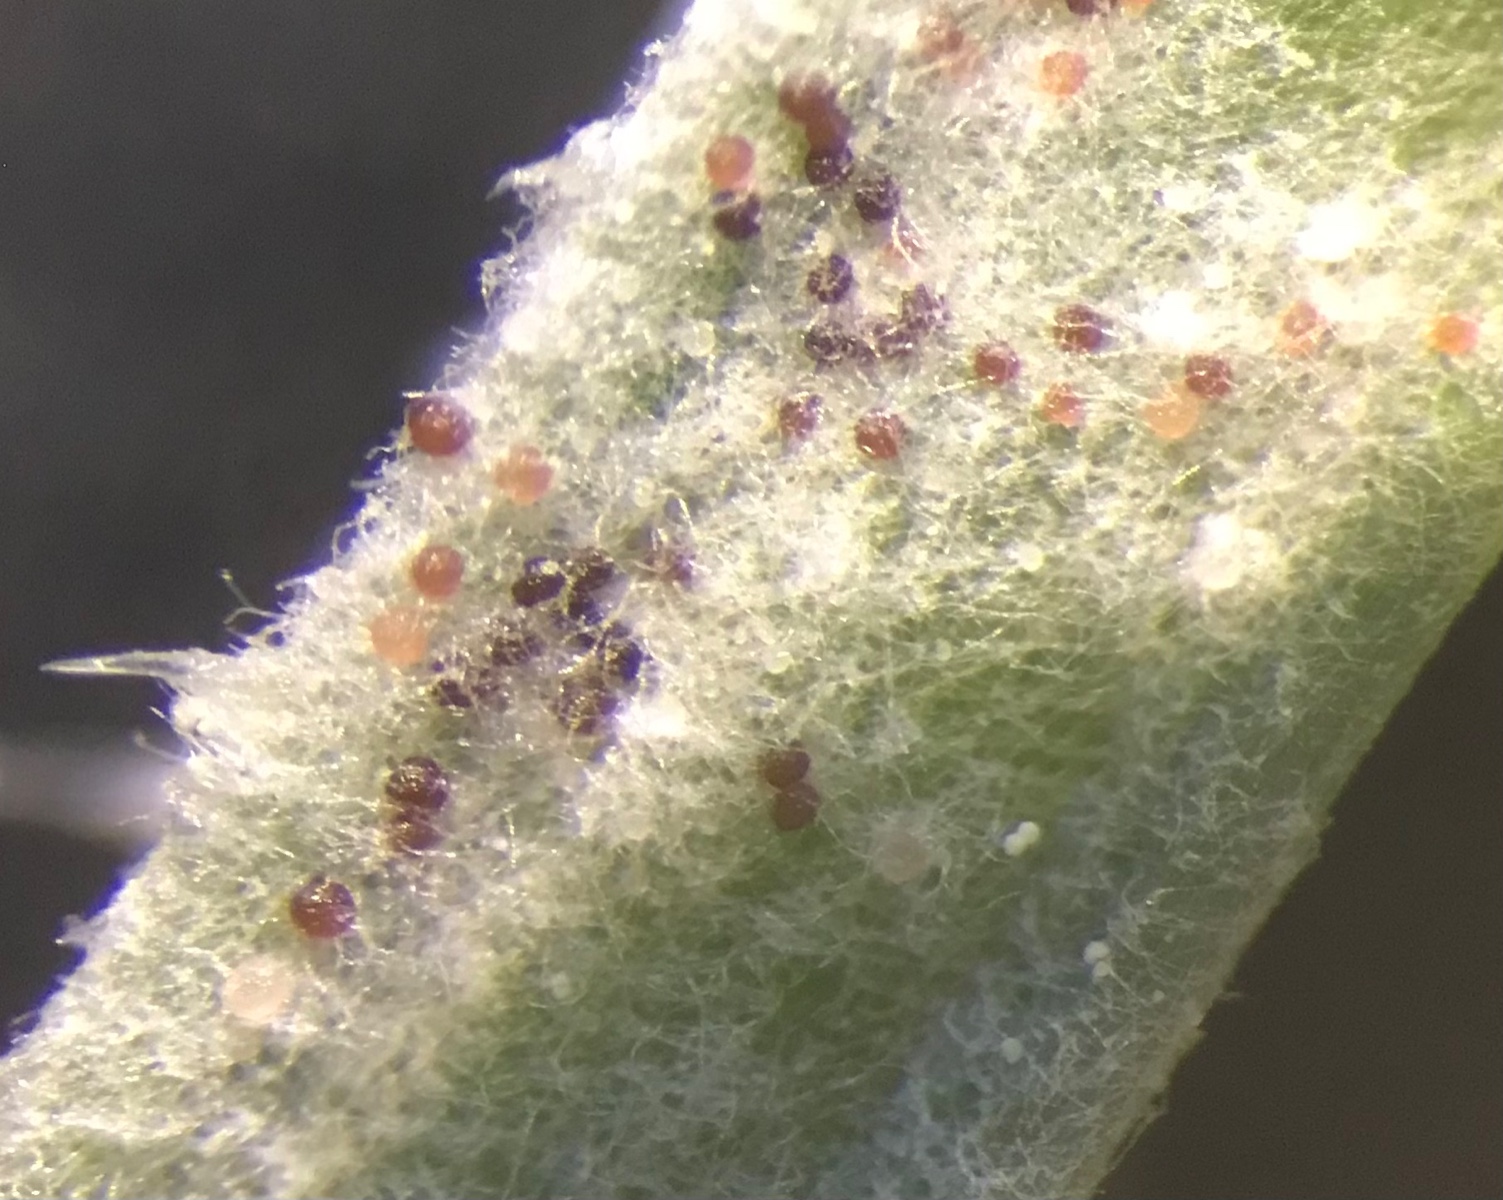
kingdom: Fungi
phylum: Ascomycota
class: Leotiomycetes
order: Helotiales
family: Erysiphaceae
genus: Neoerysiphe
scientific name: Neoerysiphe galii
